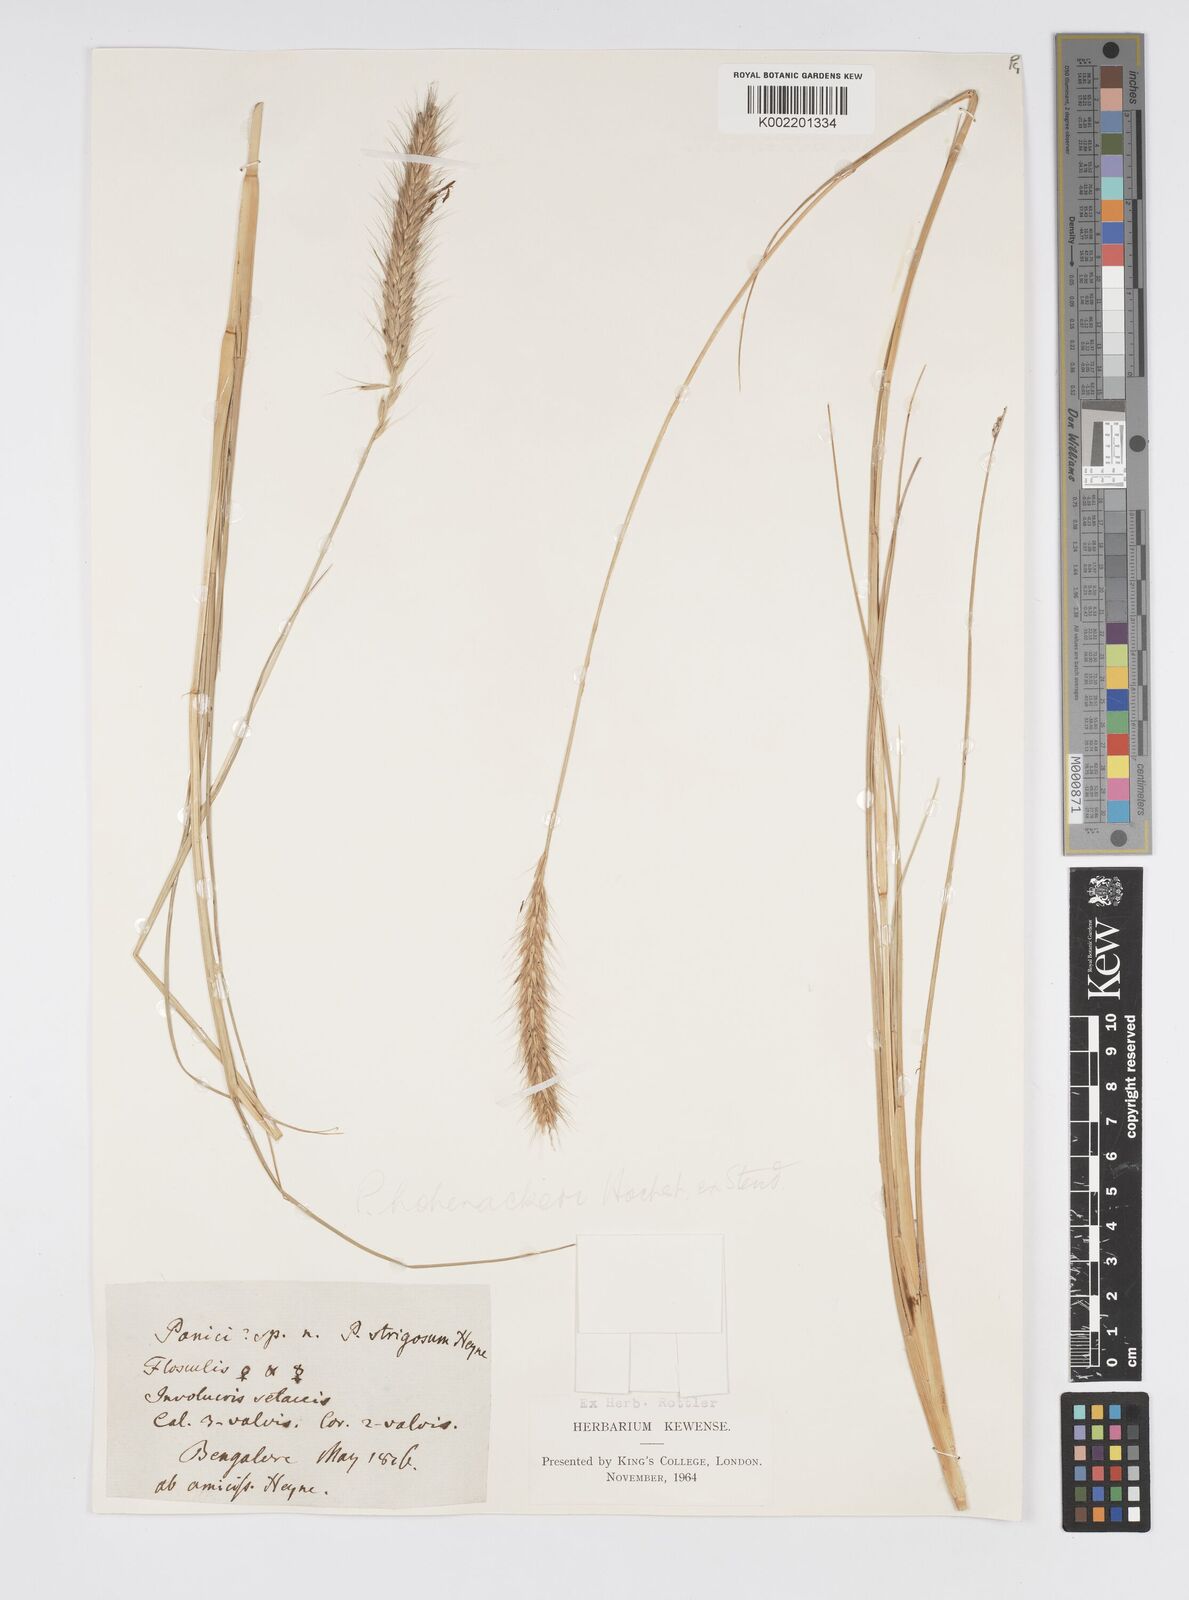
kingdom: Plantae
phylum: Tracheophyta
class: Liliopsida
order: Poales
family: Poaceae
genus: Cenchrus
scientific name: Cenchrus hohenackeri
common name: Moya grass
